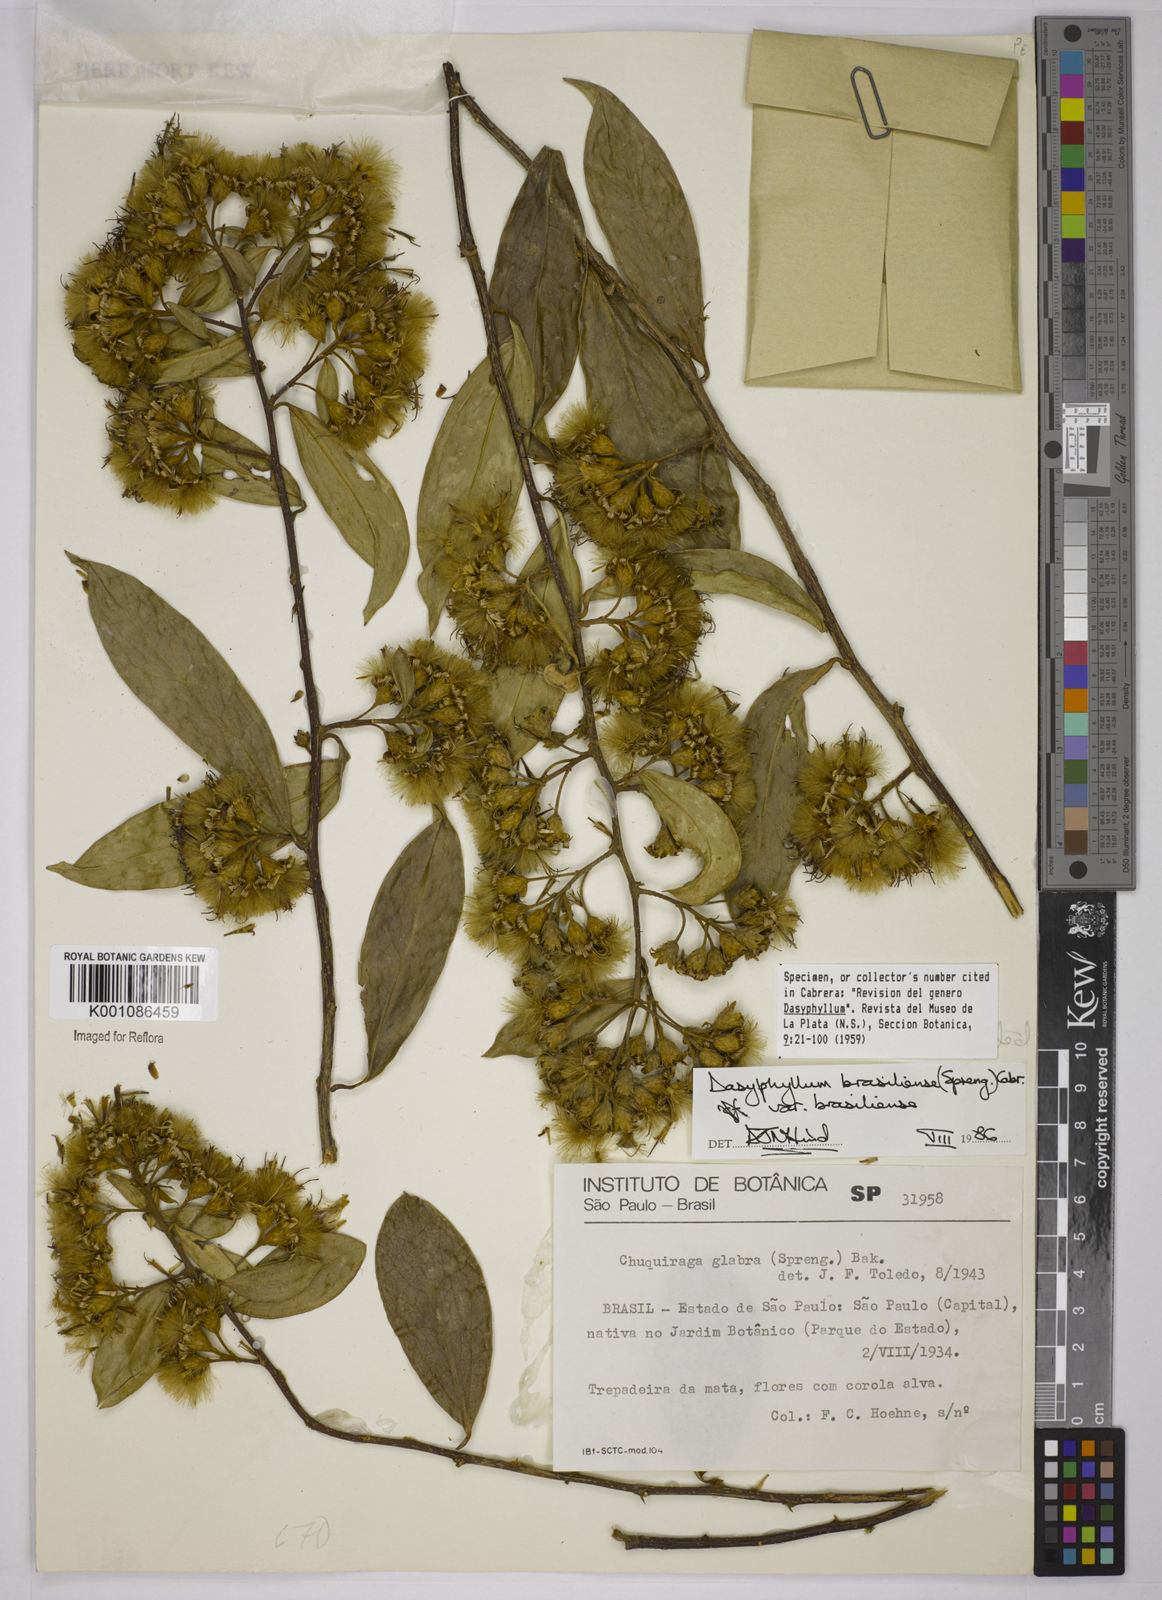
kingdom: Plantae
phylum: Tracheophyta
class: Magnoliopsida
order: Asterales
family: Asteraceae
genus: Dasyphyllum
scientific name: Dasyphyllum brasiliense
